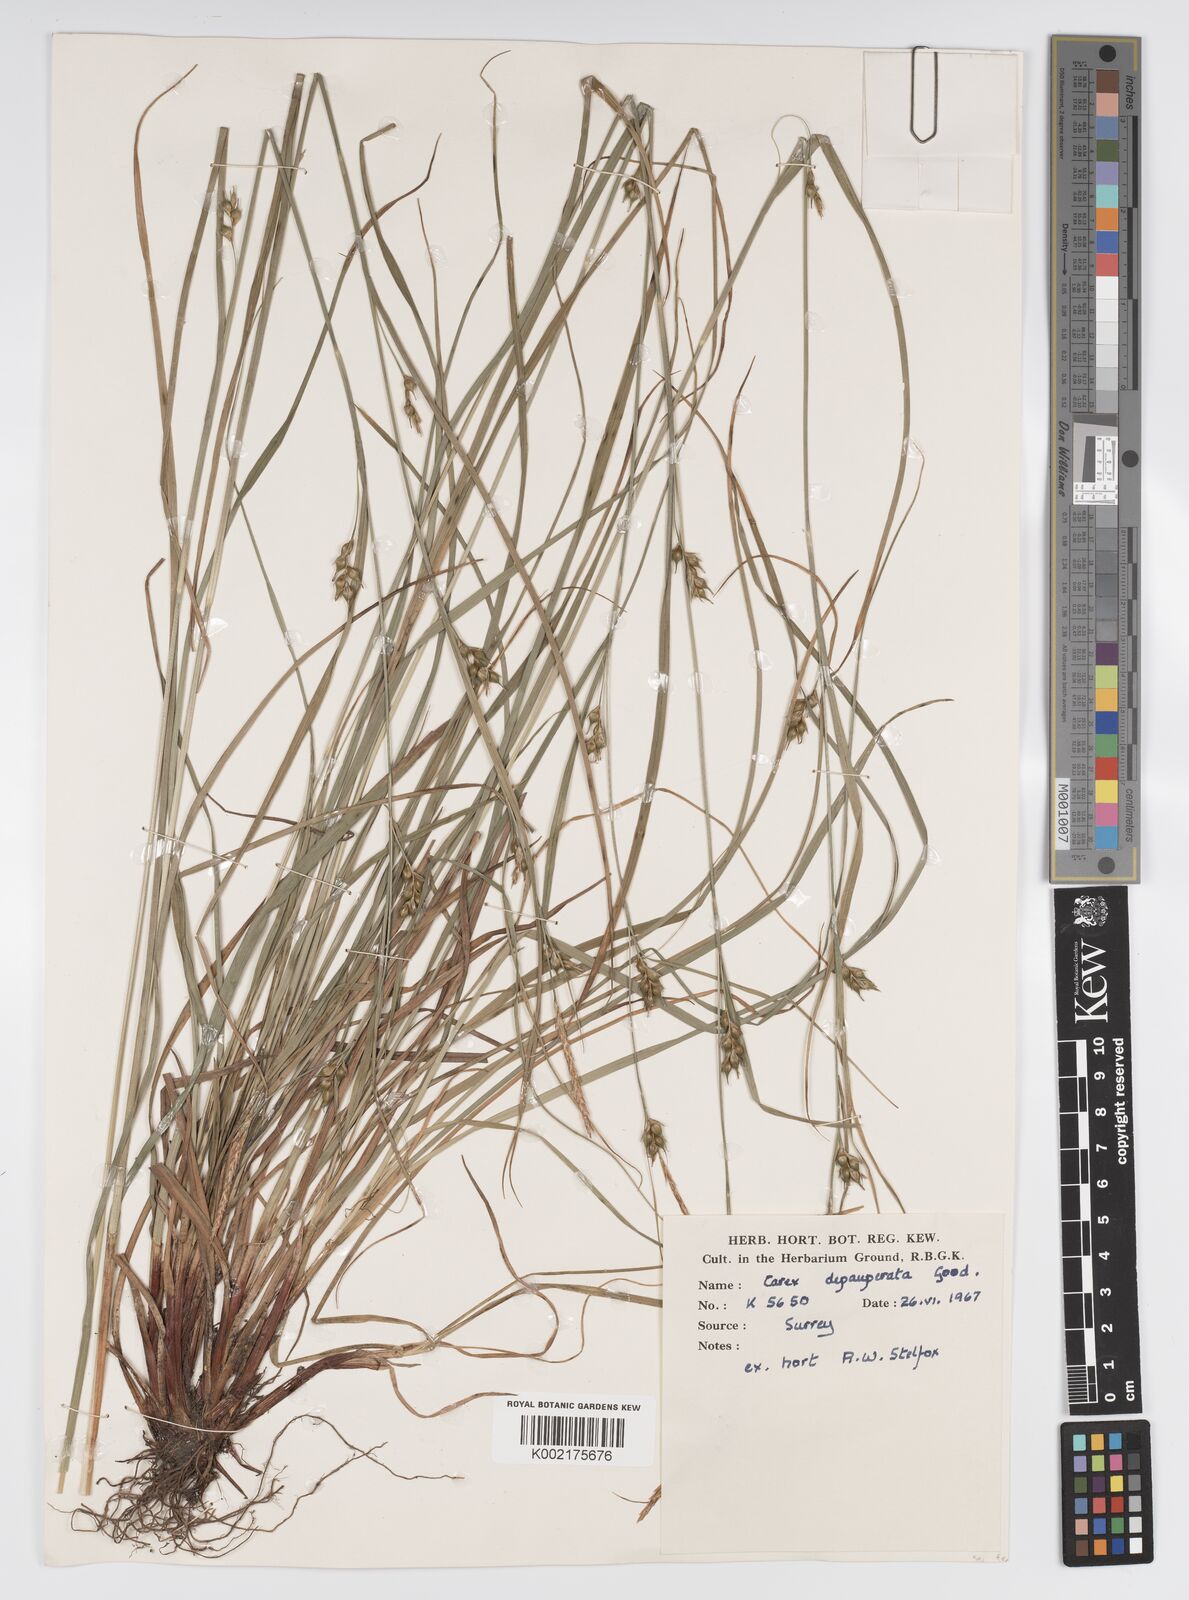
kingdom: Plantae
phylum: Tracheophyta
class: Liliopsida
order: Poales
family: Cyperaceae
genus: Carex
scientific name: Carex vaginata
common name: Sheathed sedge
